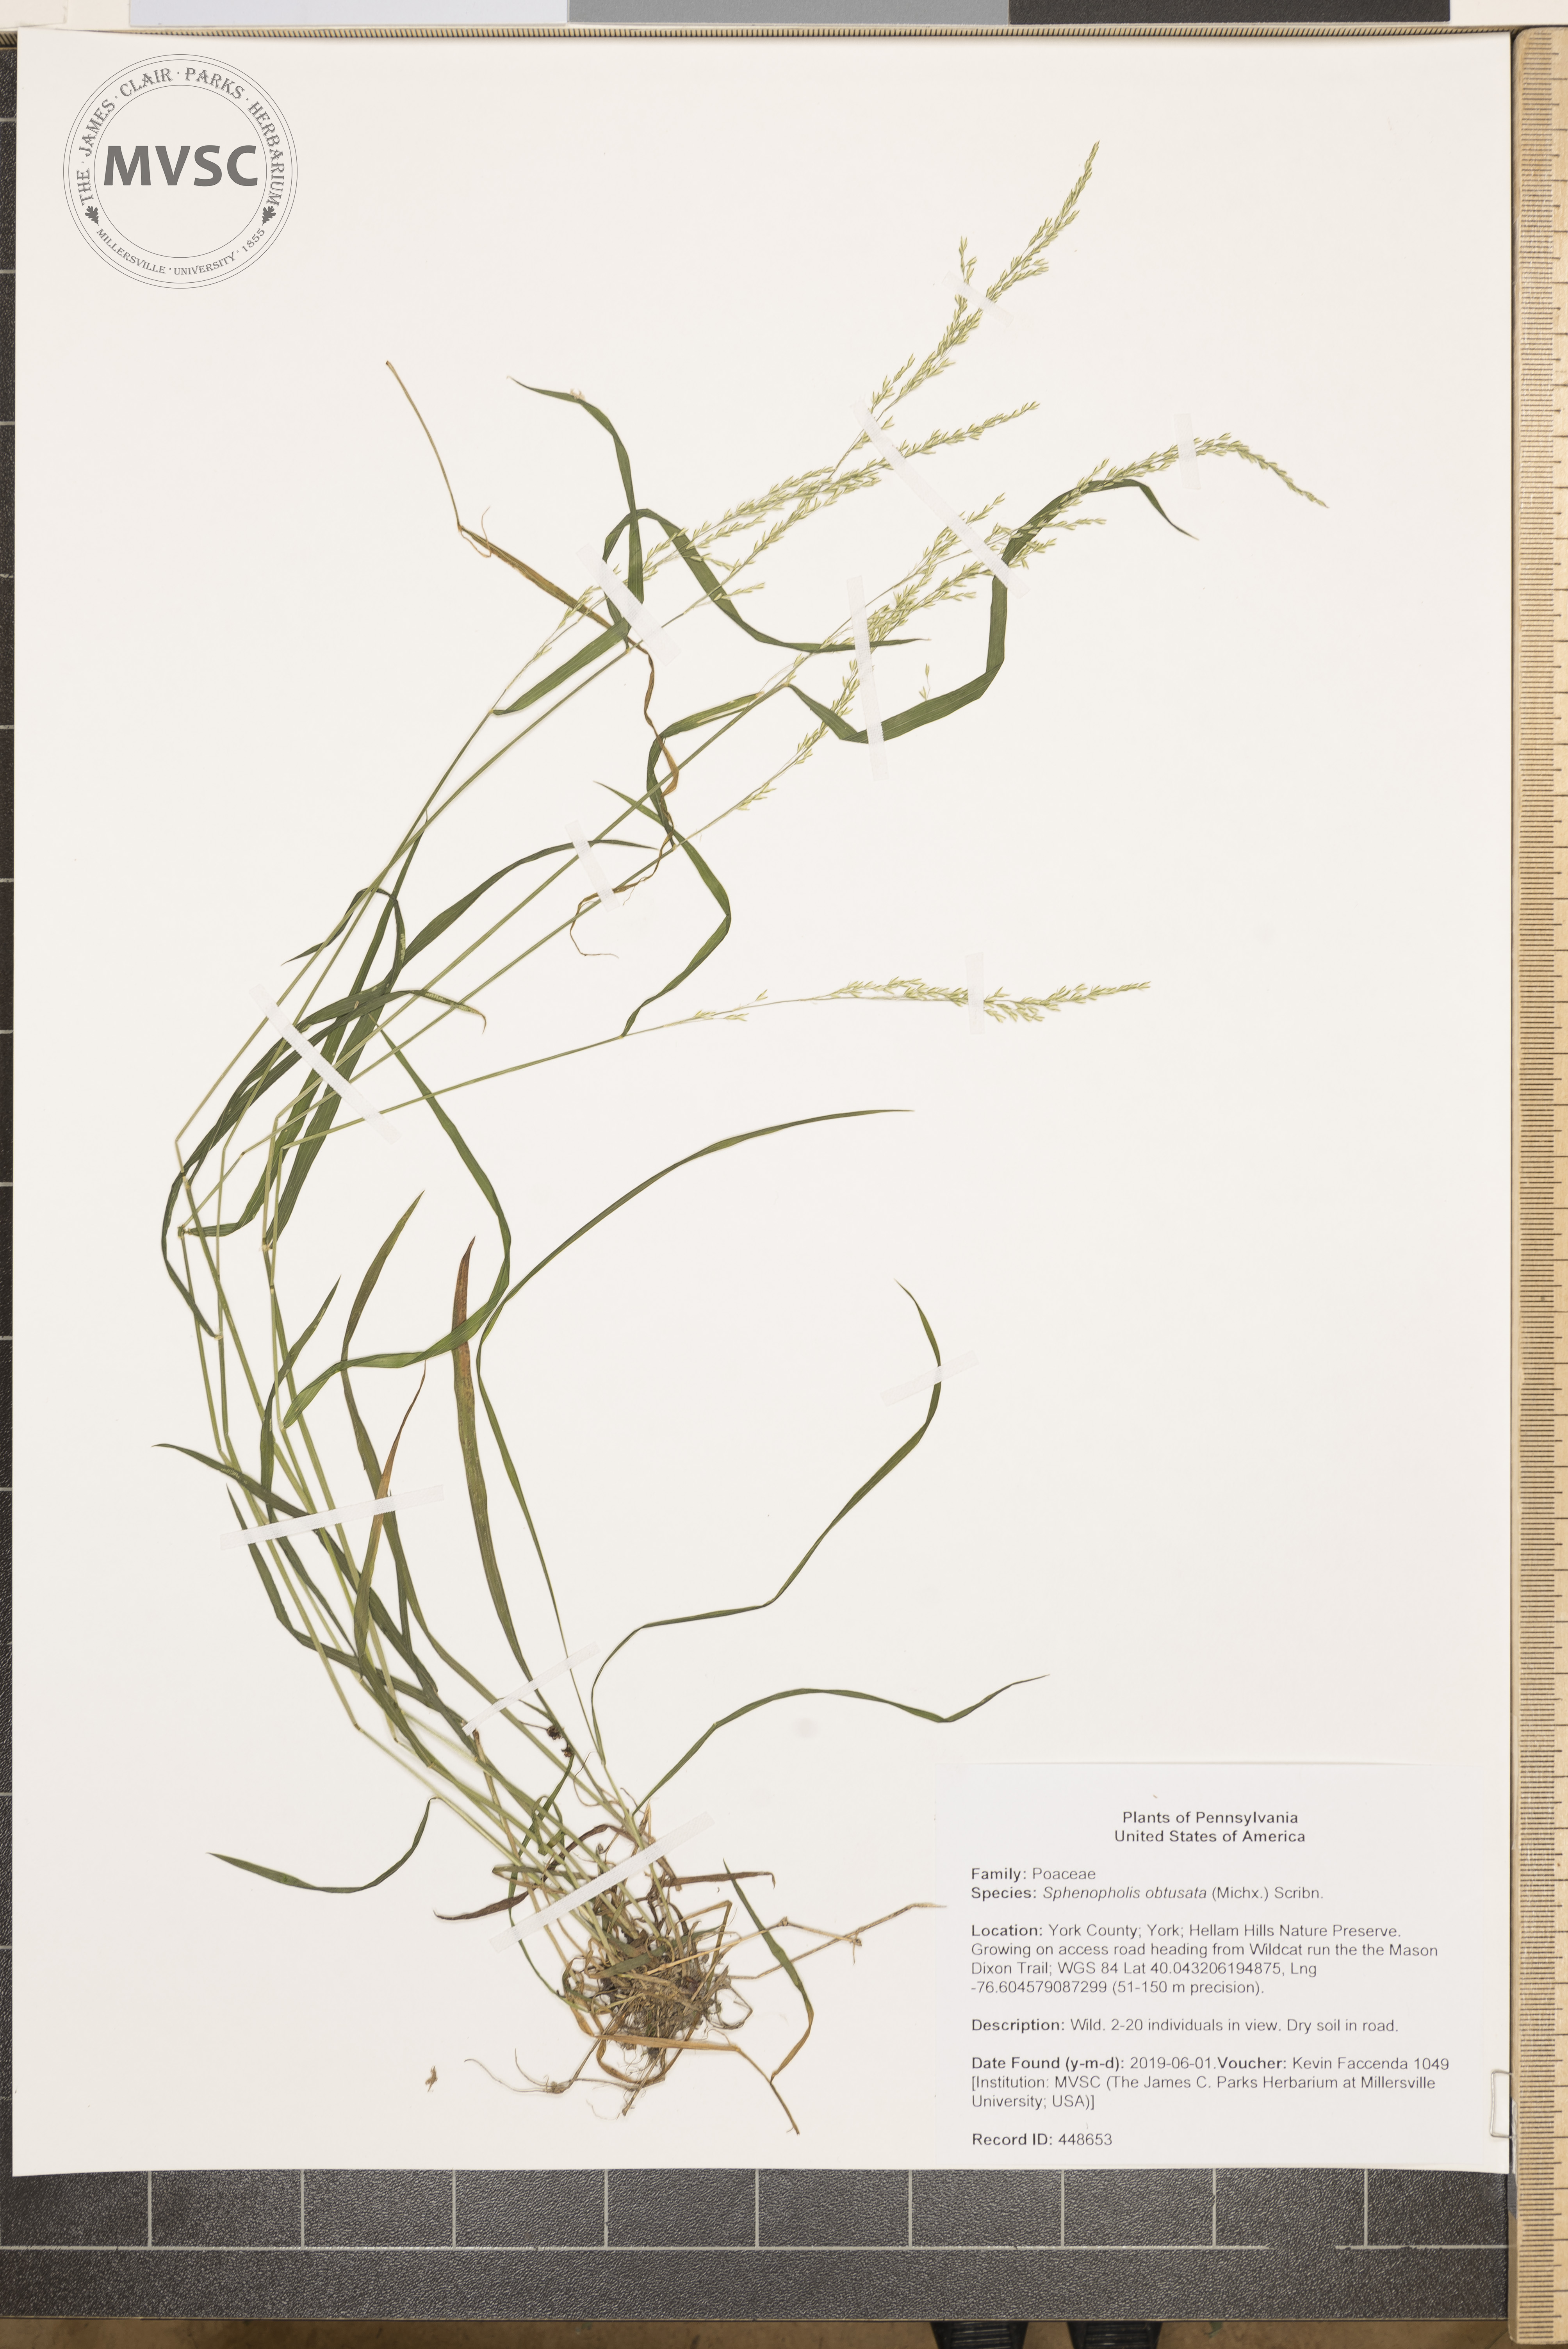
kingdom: Plantae
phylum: Tracheophyta
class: Liliopsida
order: Poales
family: Poaceae
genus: Sphenopholis
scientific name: Sphenopholis obtusata
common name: Prairie grass
